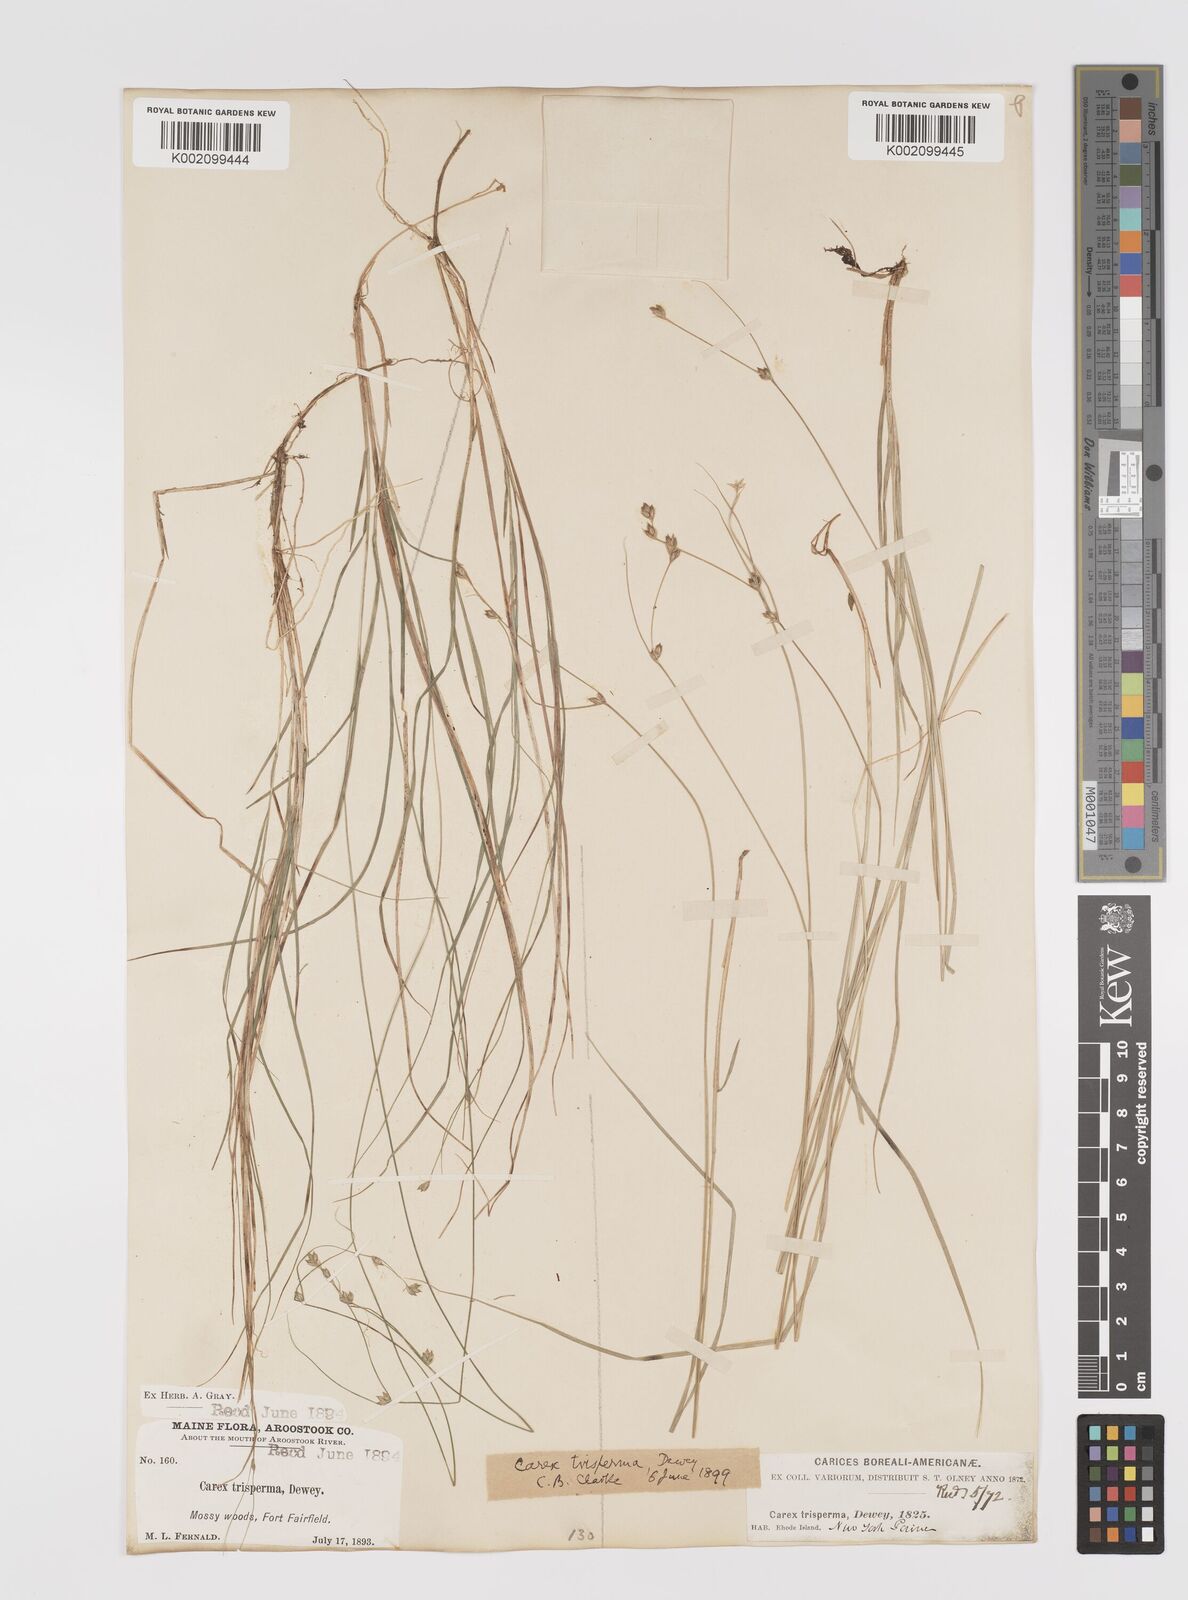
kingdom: Plantae
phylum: Tracheophyta
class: Liliopsida
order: Poales
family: Cyperaceae
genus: Carex
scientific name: Carex trisperma
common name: Three-seeded sedge
